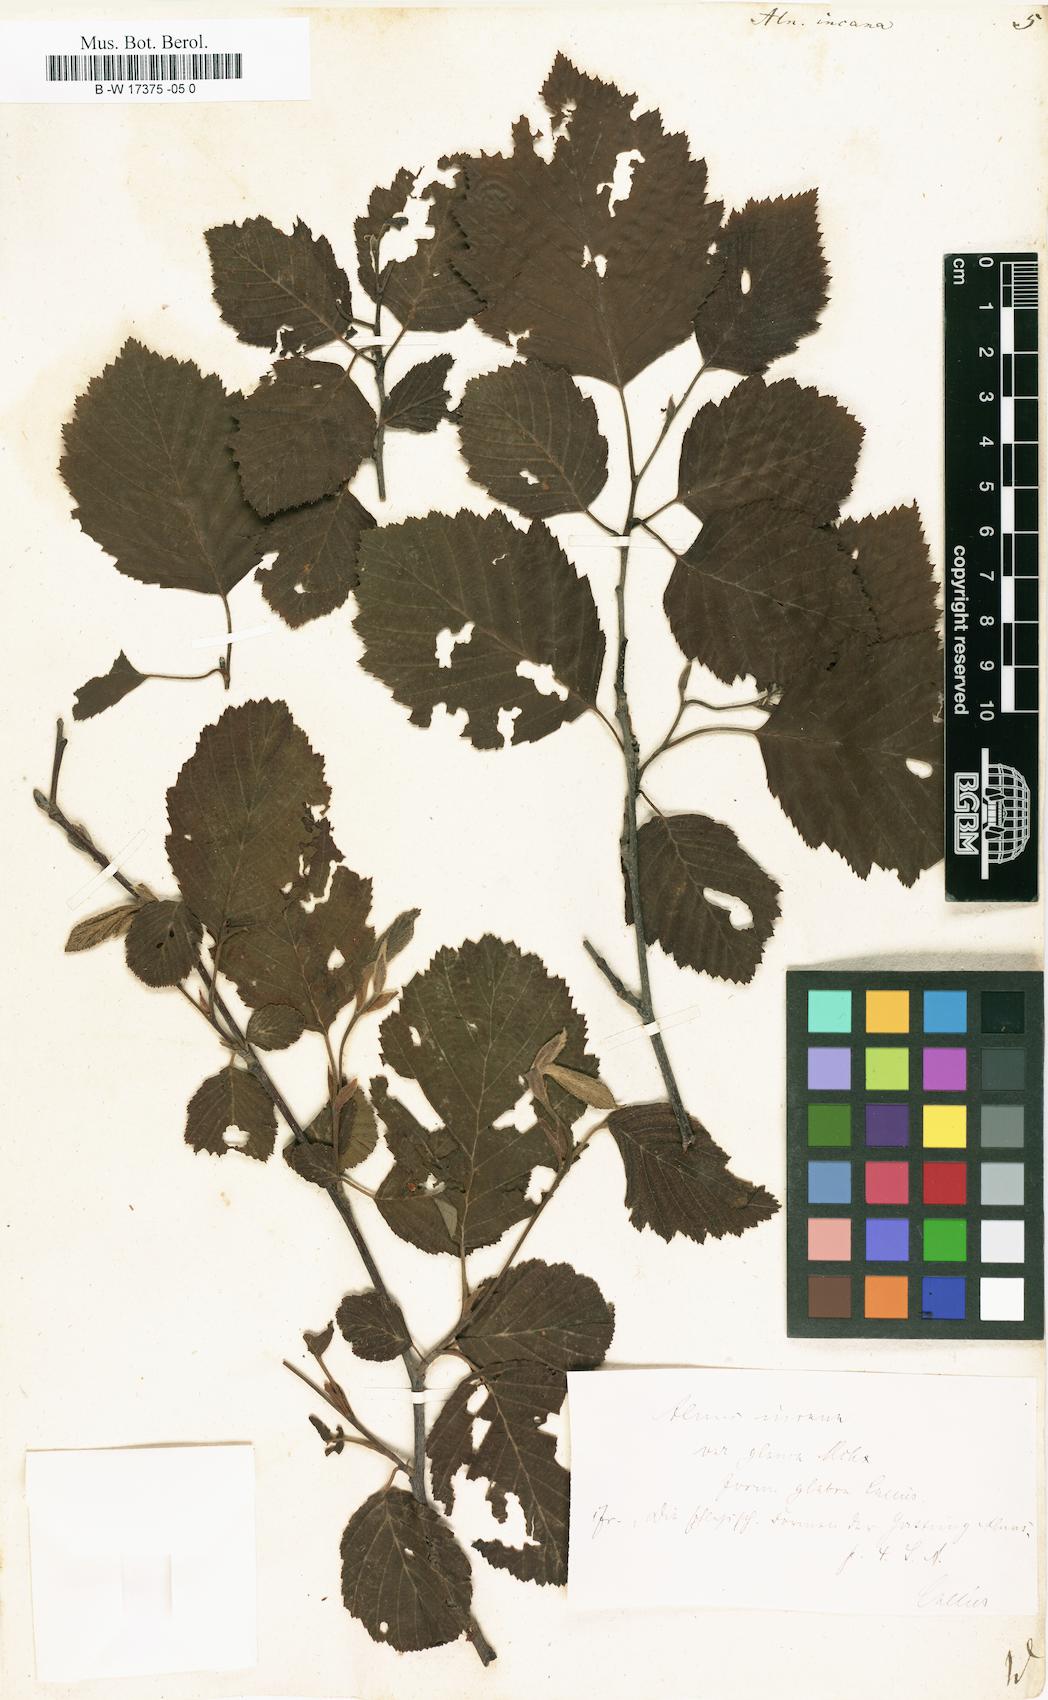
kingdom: Plantae
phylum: Tracheophyta
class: Magnoliopsida
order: Fagales
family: Betulaceae
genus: Alnus
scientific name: Alnus incana
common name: Grey alder
